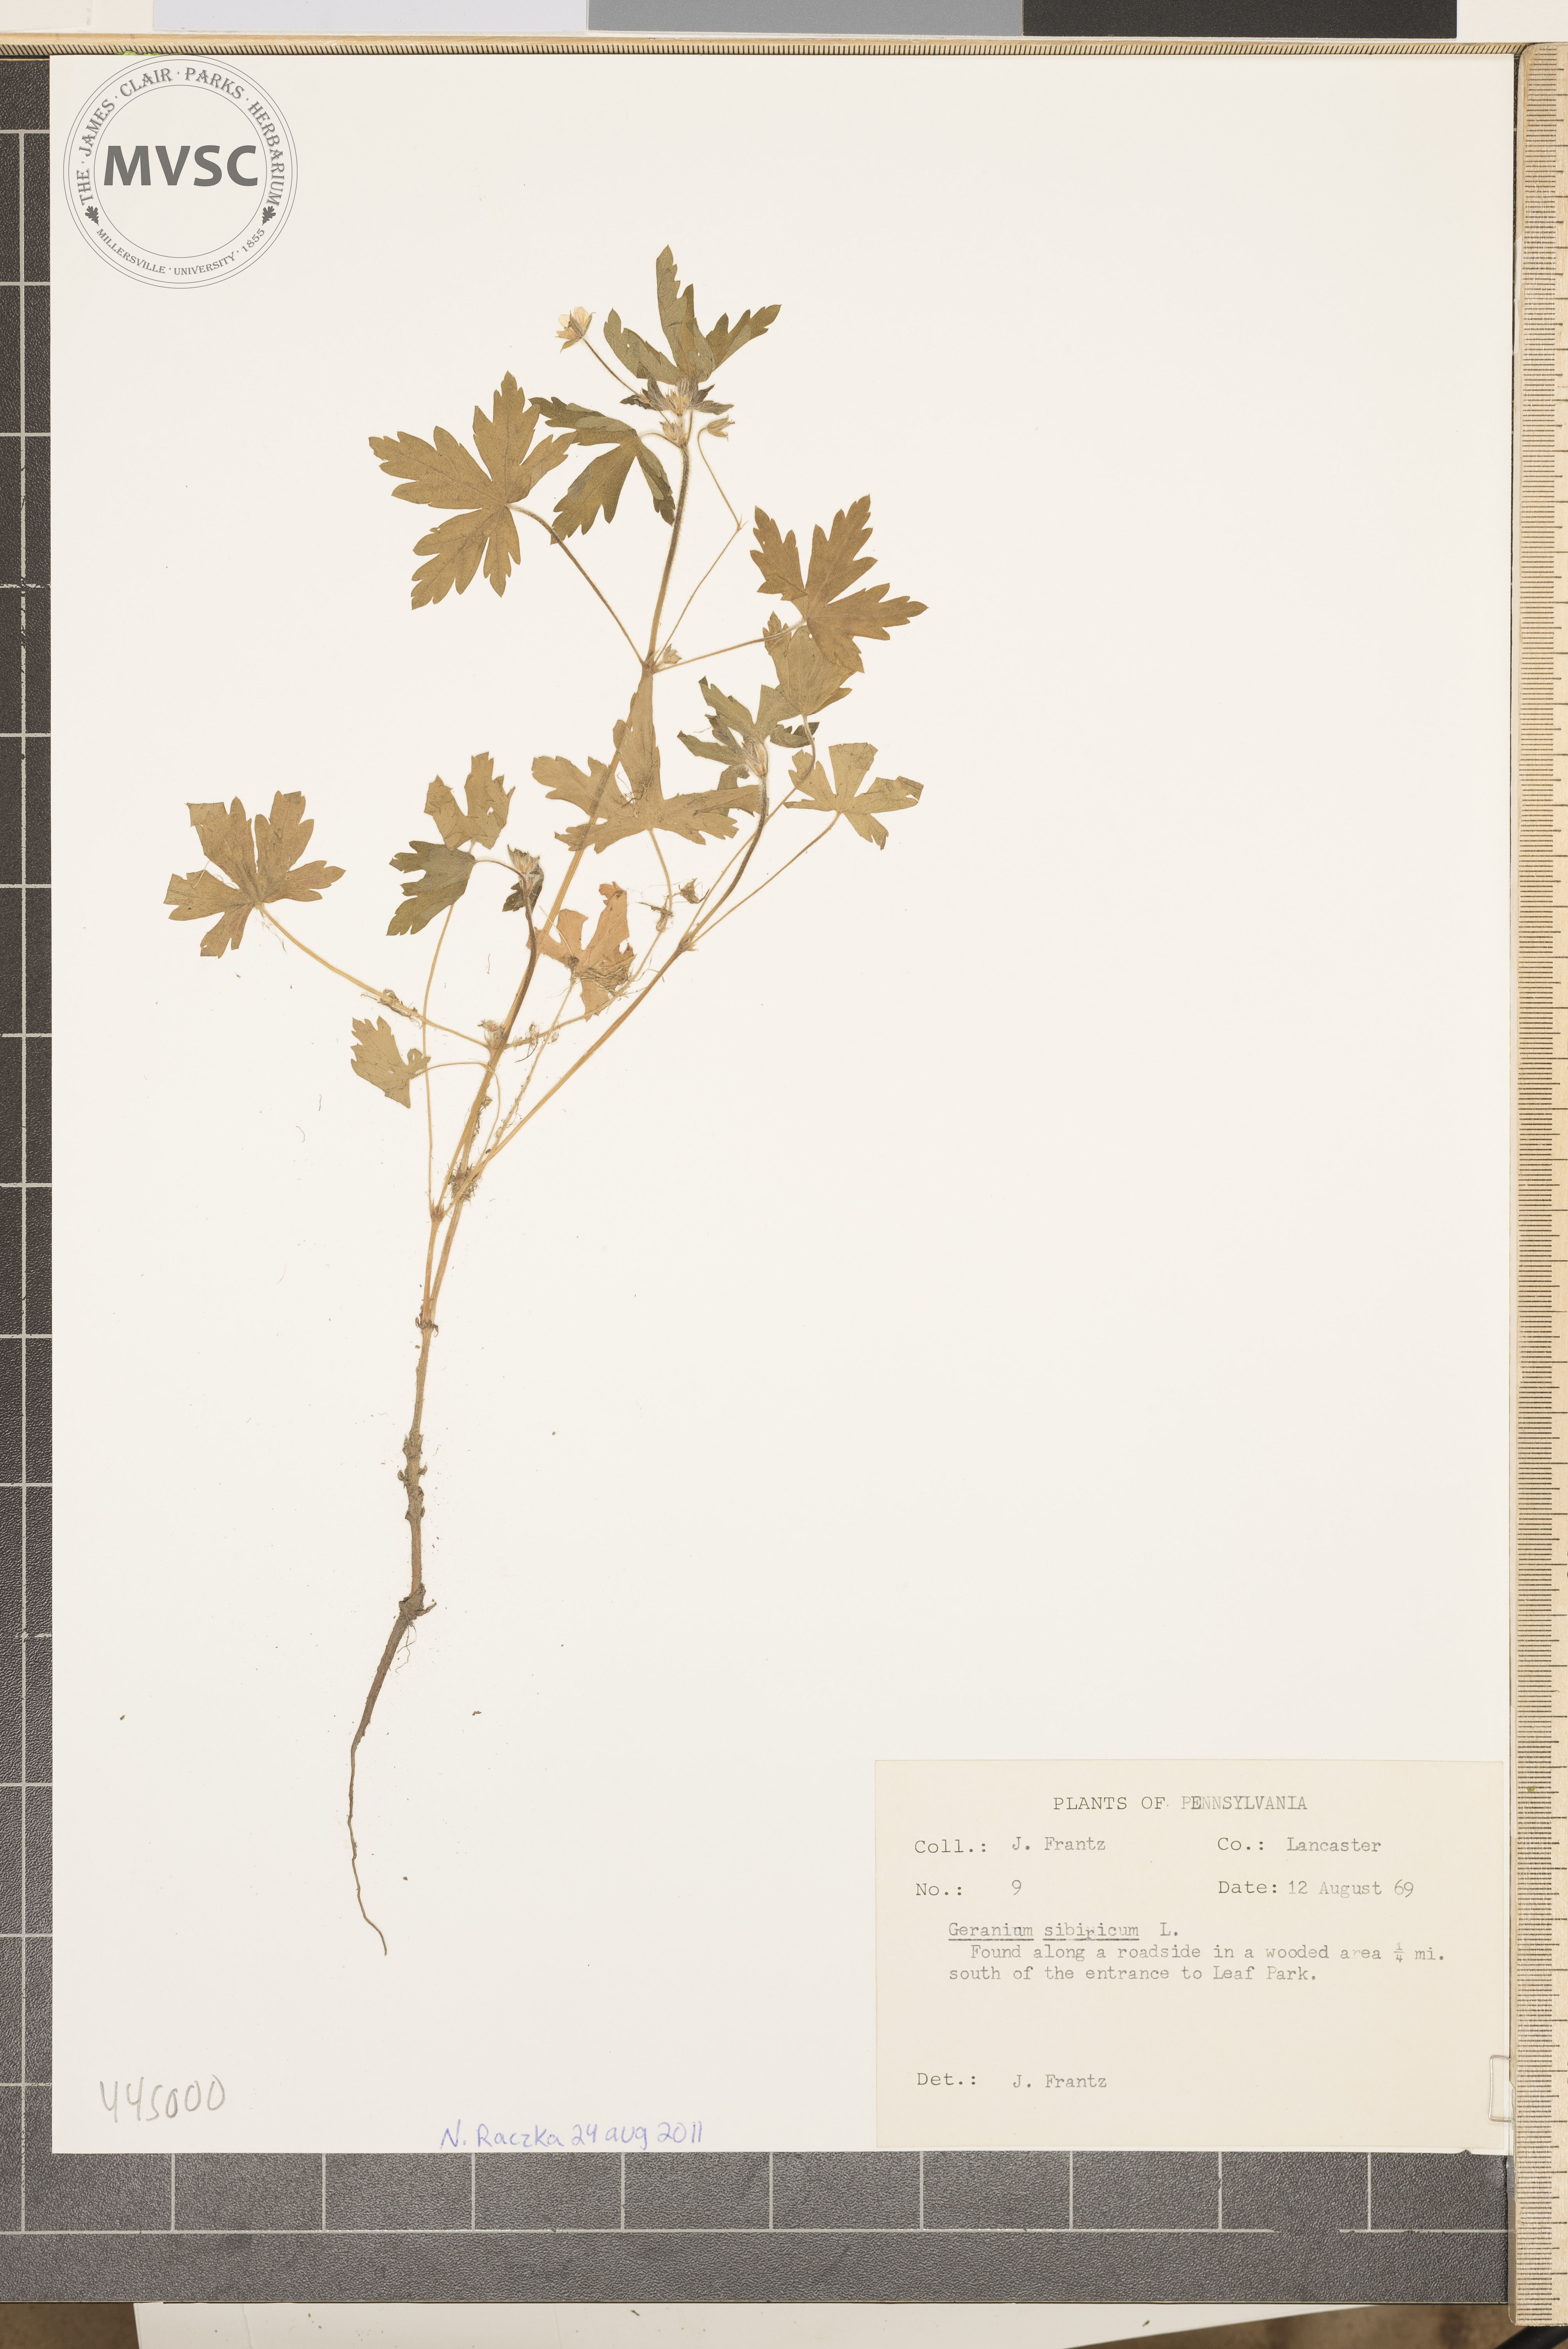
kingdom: Plantae
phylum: Tracheophyta
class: Magnoliopsida
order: Geraniales
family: Geraniaceae
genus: Geranium
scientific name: Geranium sibiricum
